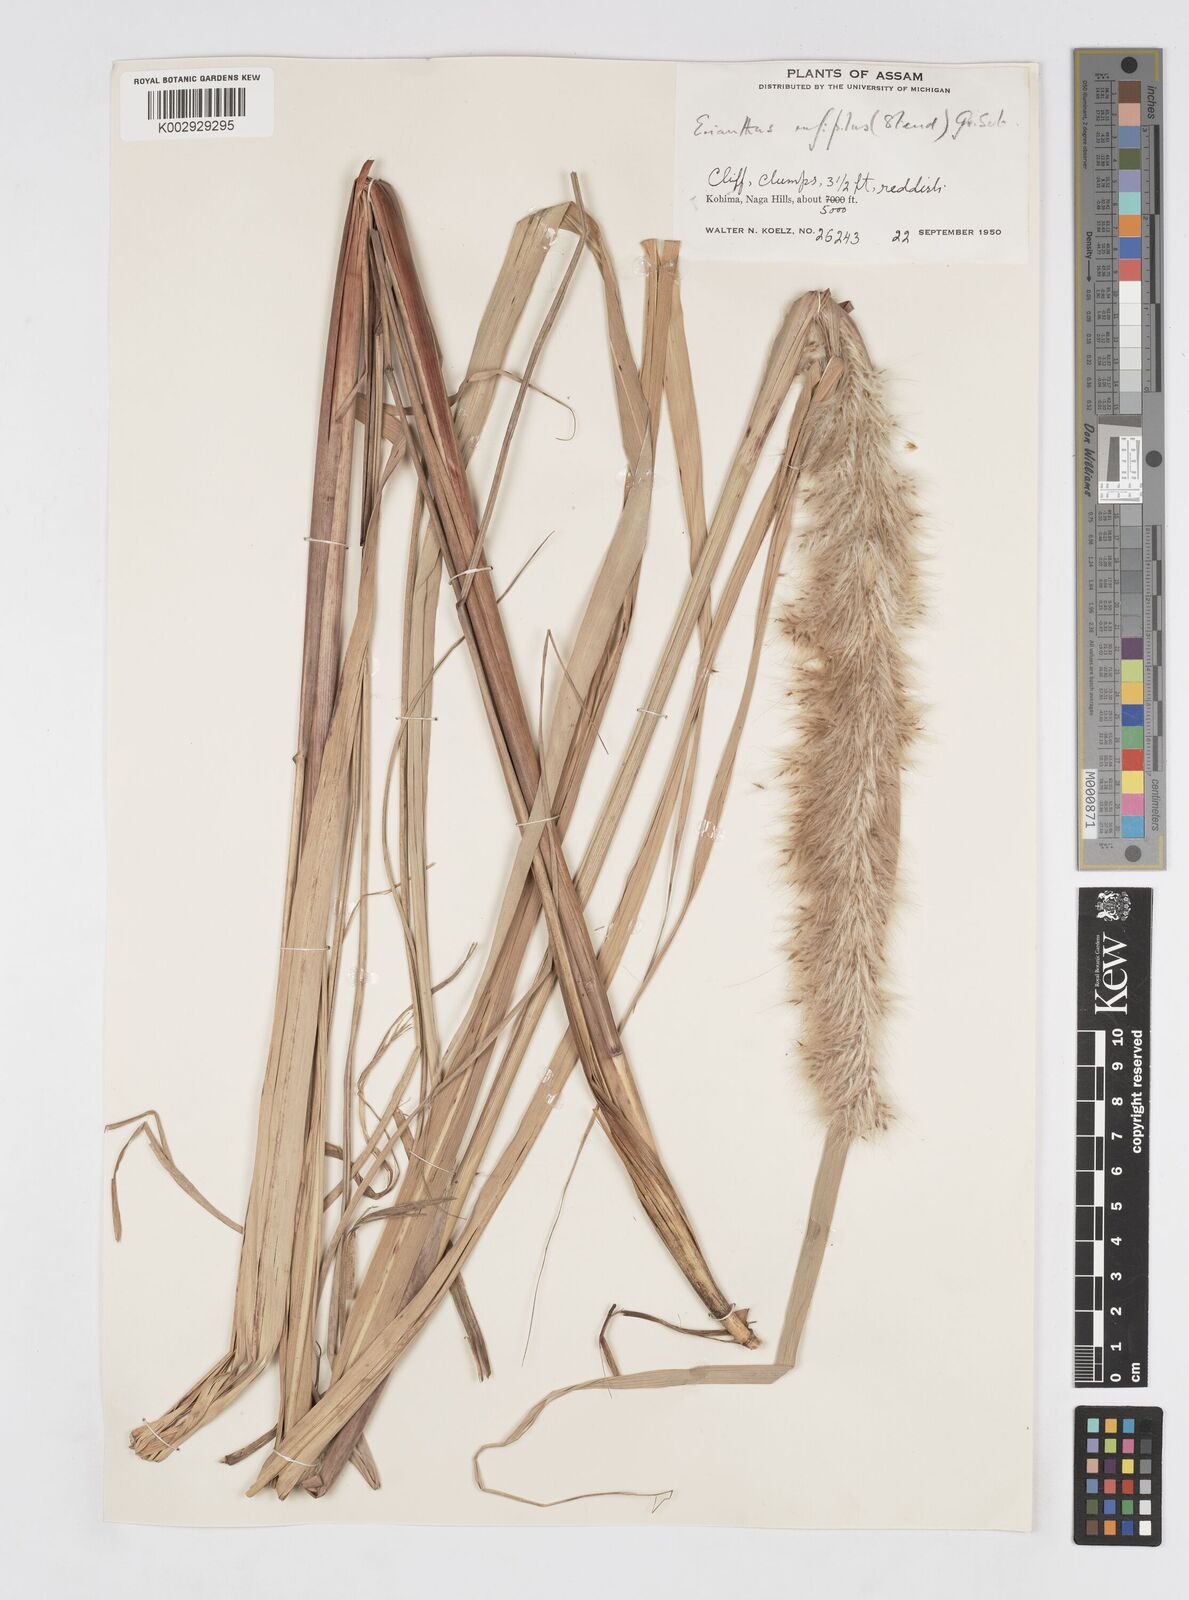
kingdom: Plantae
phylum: Tracheophyta
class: Liliopsida
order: Poales
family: Poaceae
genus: Tripidium
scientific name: Tripidium rufipilum
